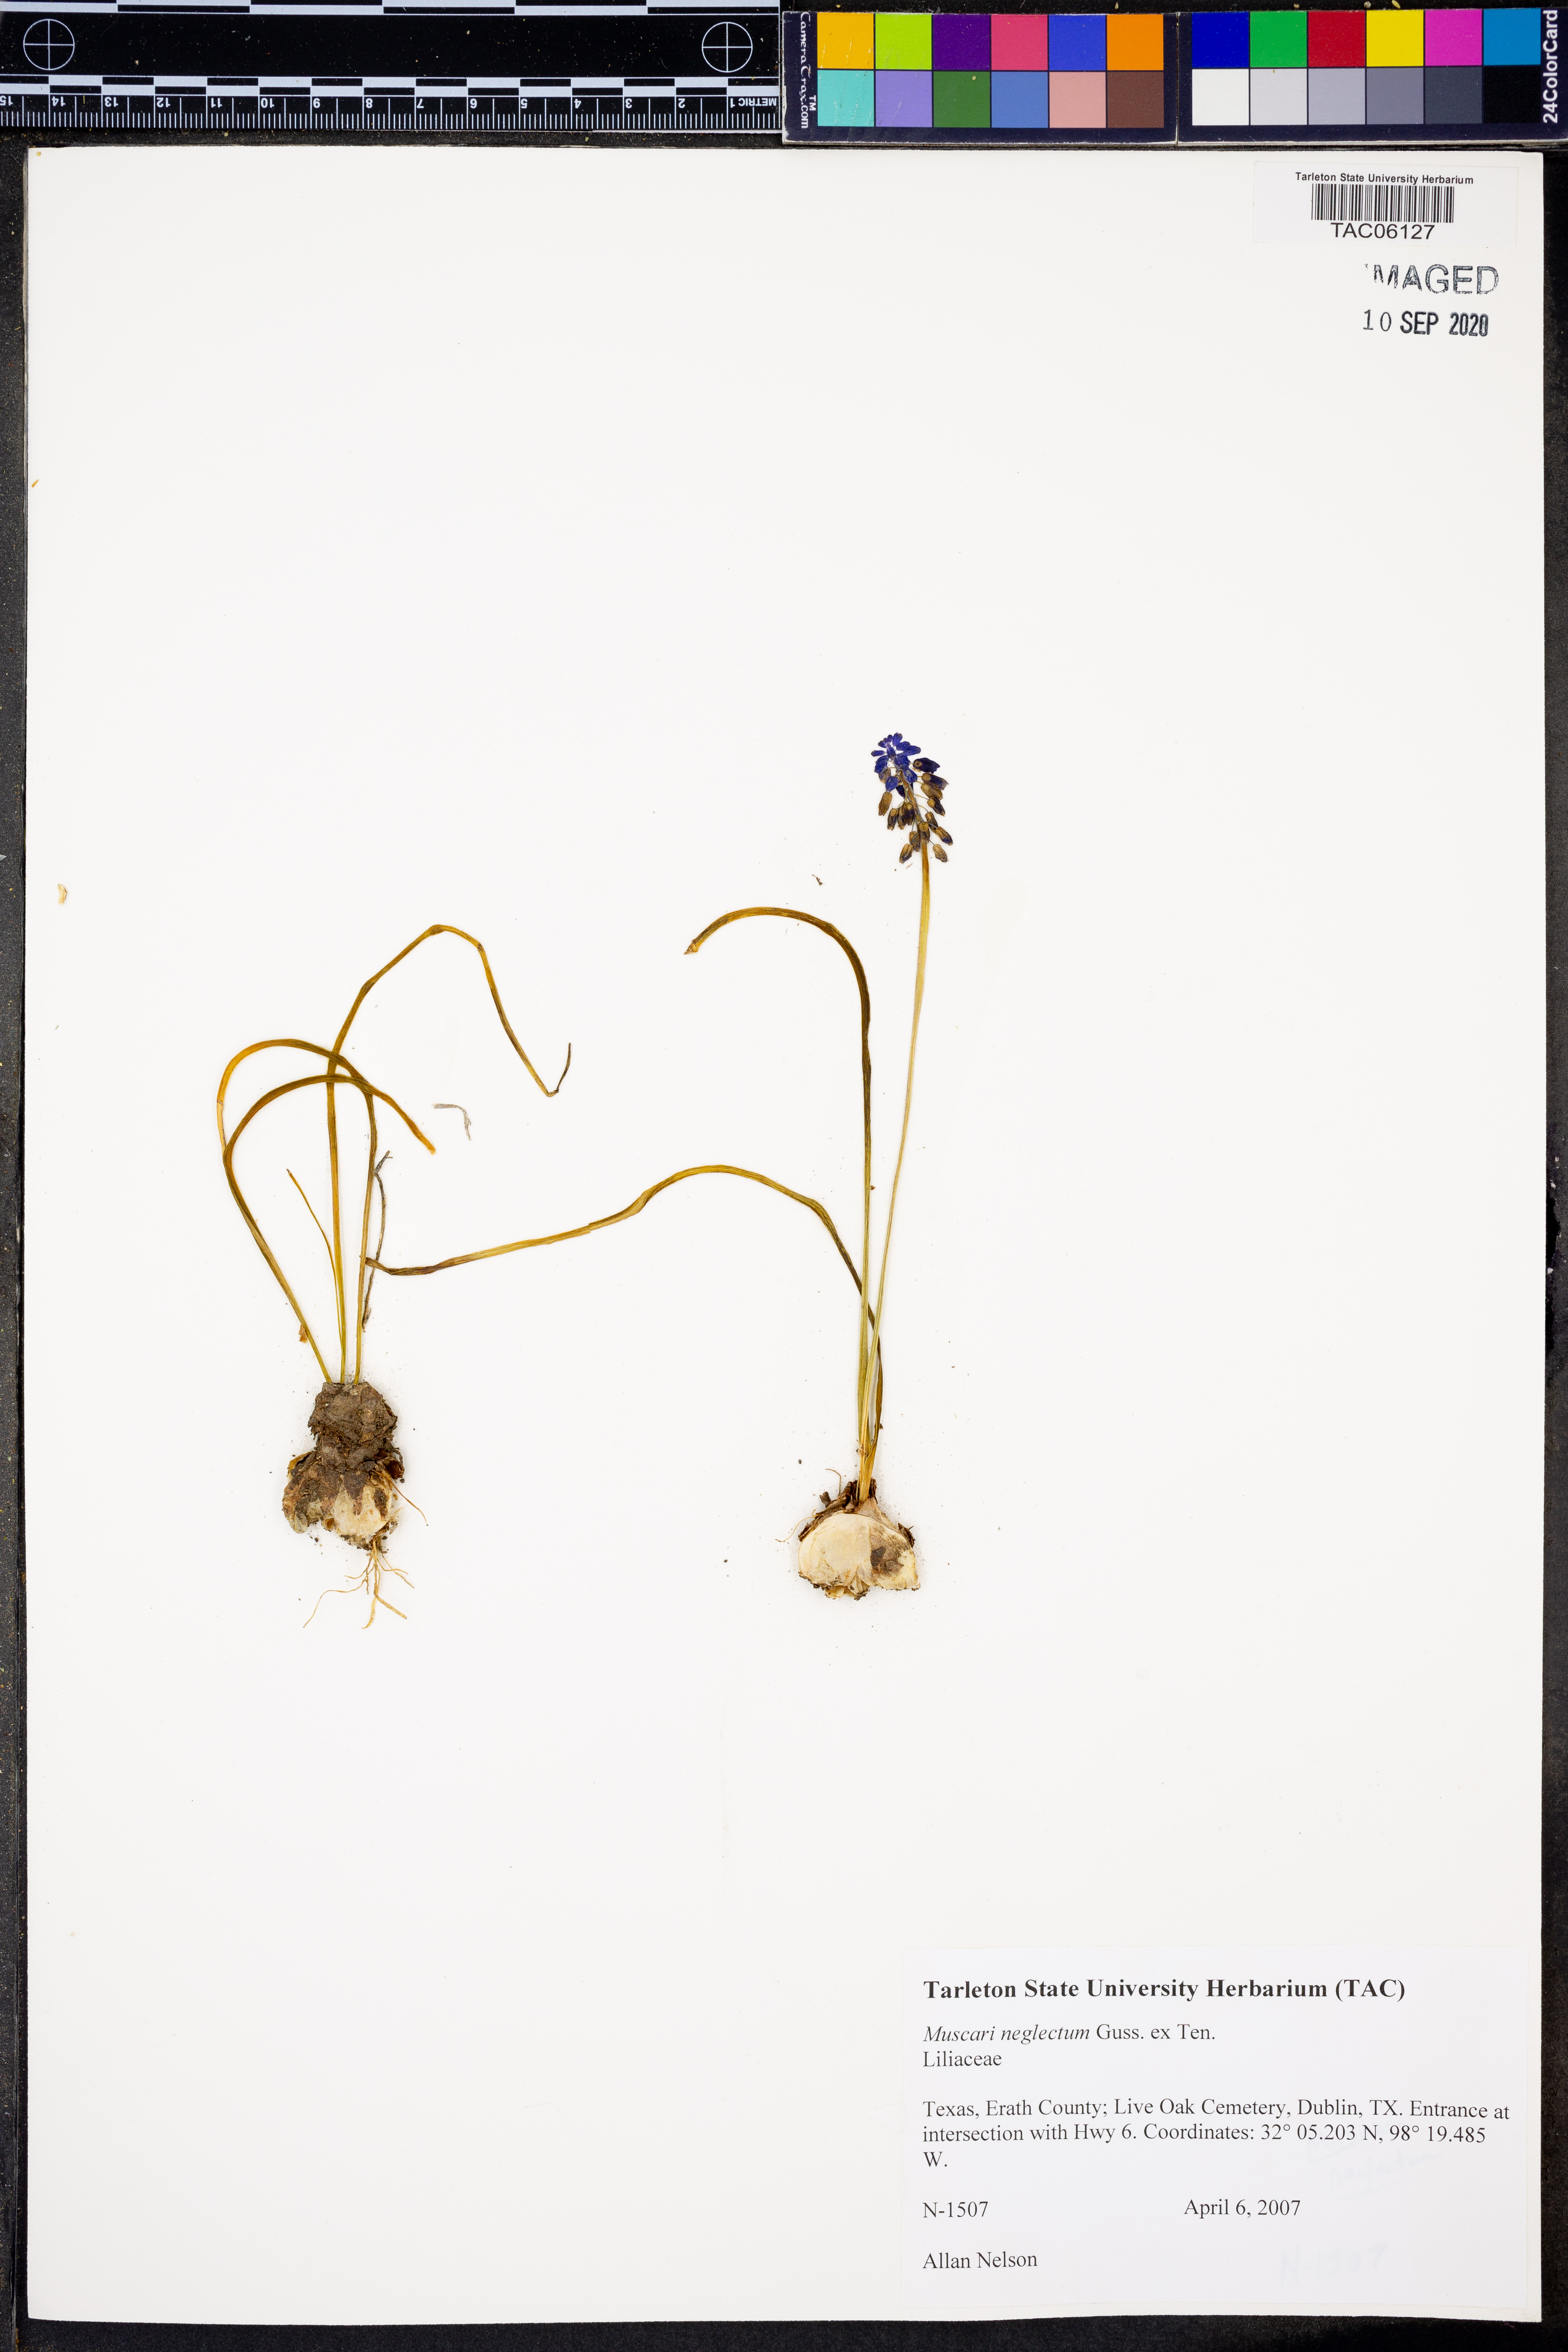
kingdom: Plantae
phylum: Tracheophyta
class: Liliopsida
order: Asparagales
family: Asparagaceae
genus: Muscari
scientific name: Muscari neglectum
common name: Grape-hyacinth
